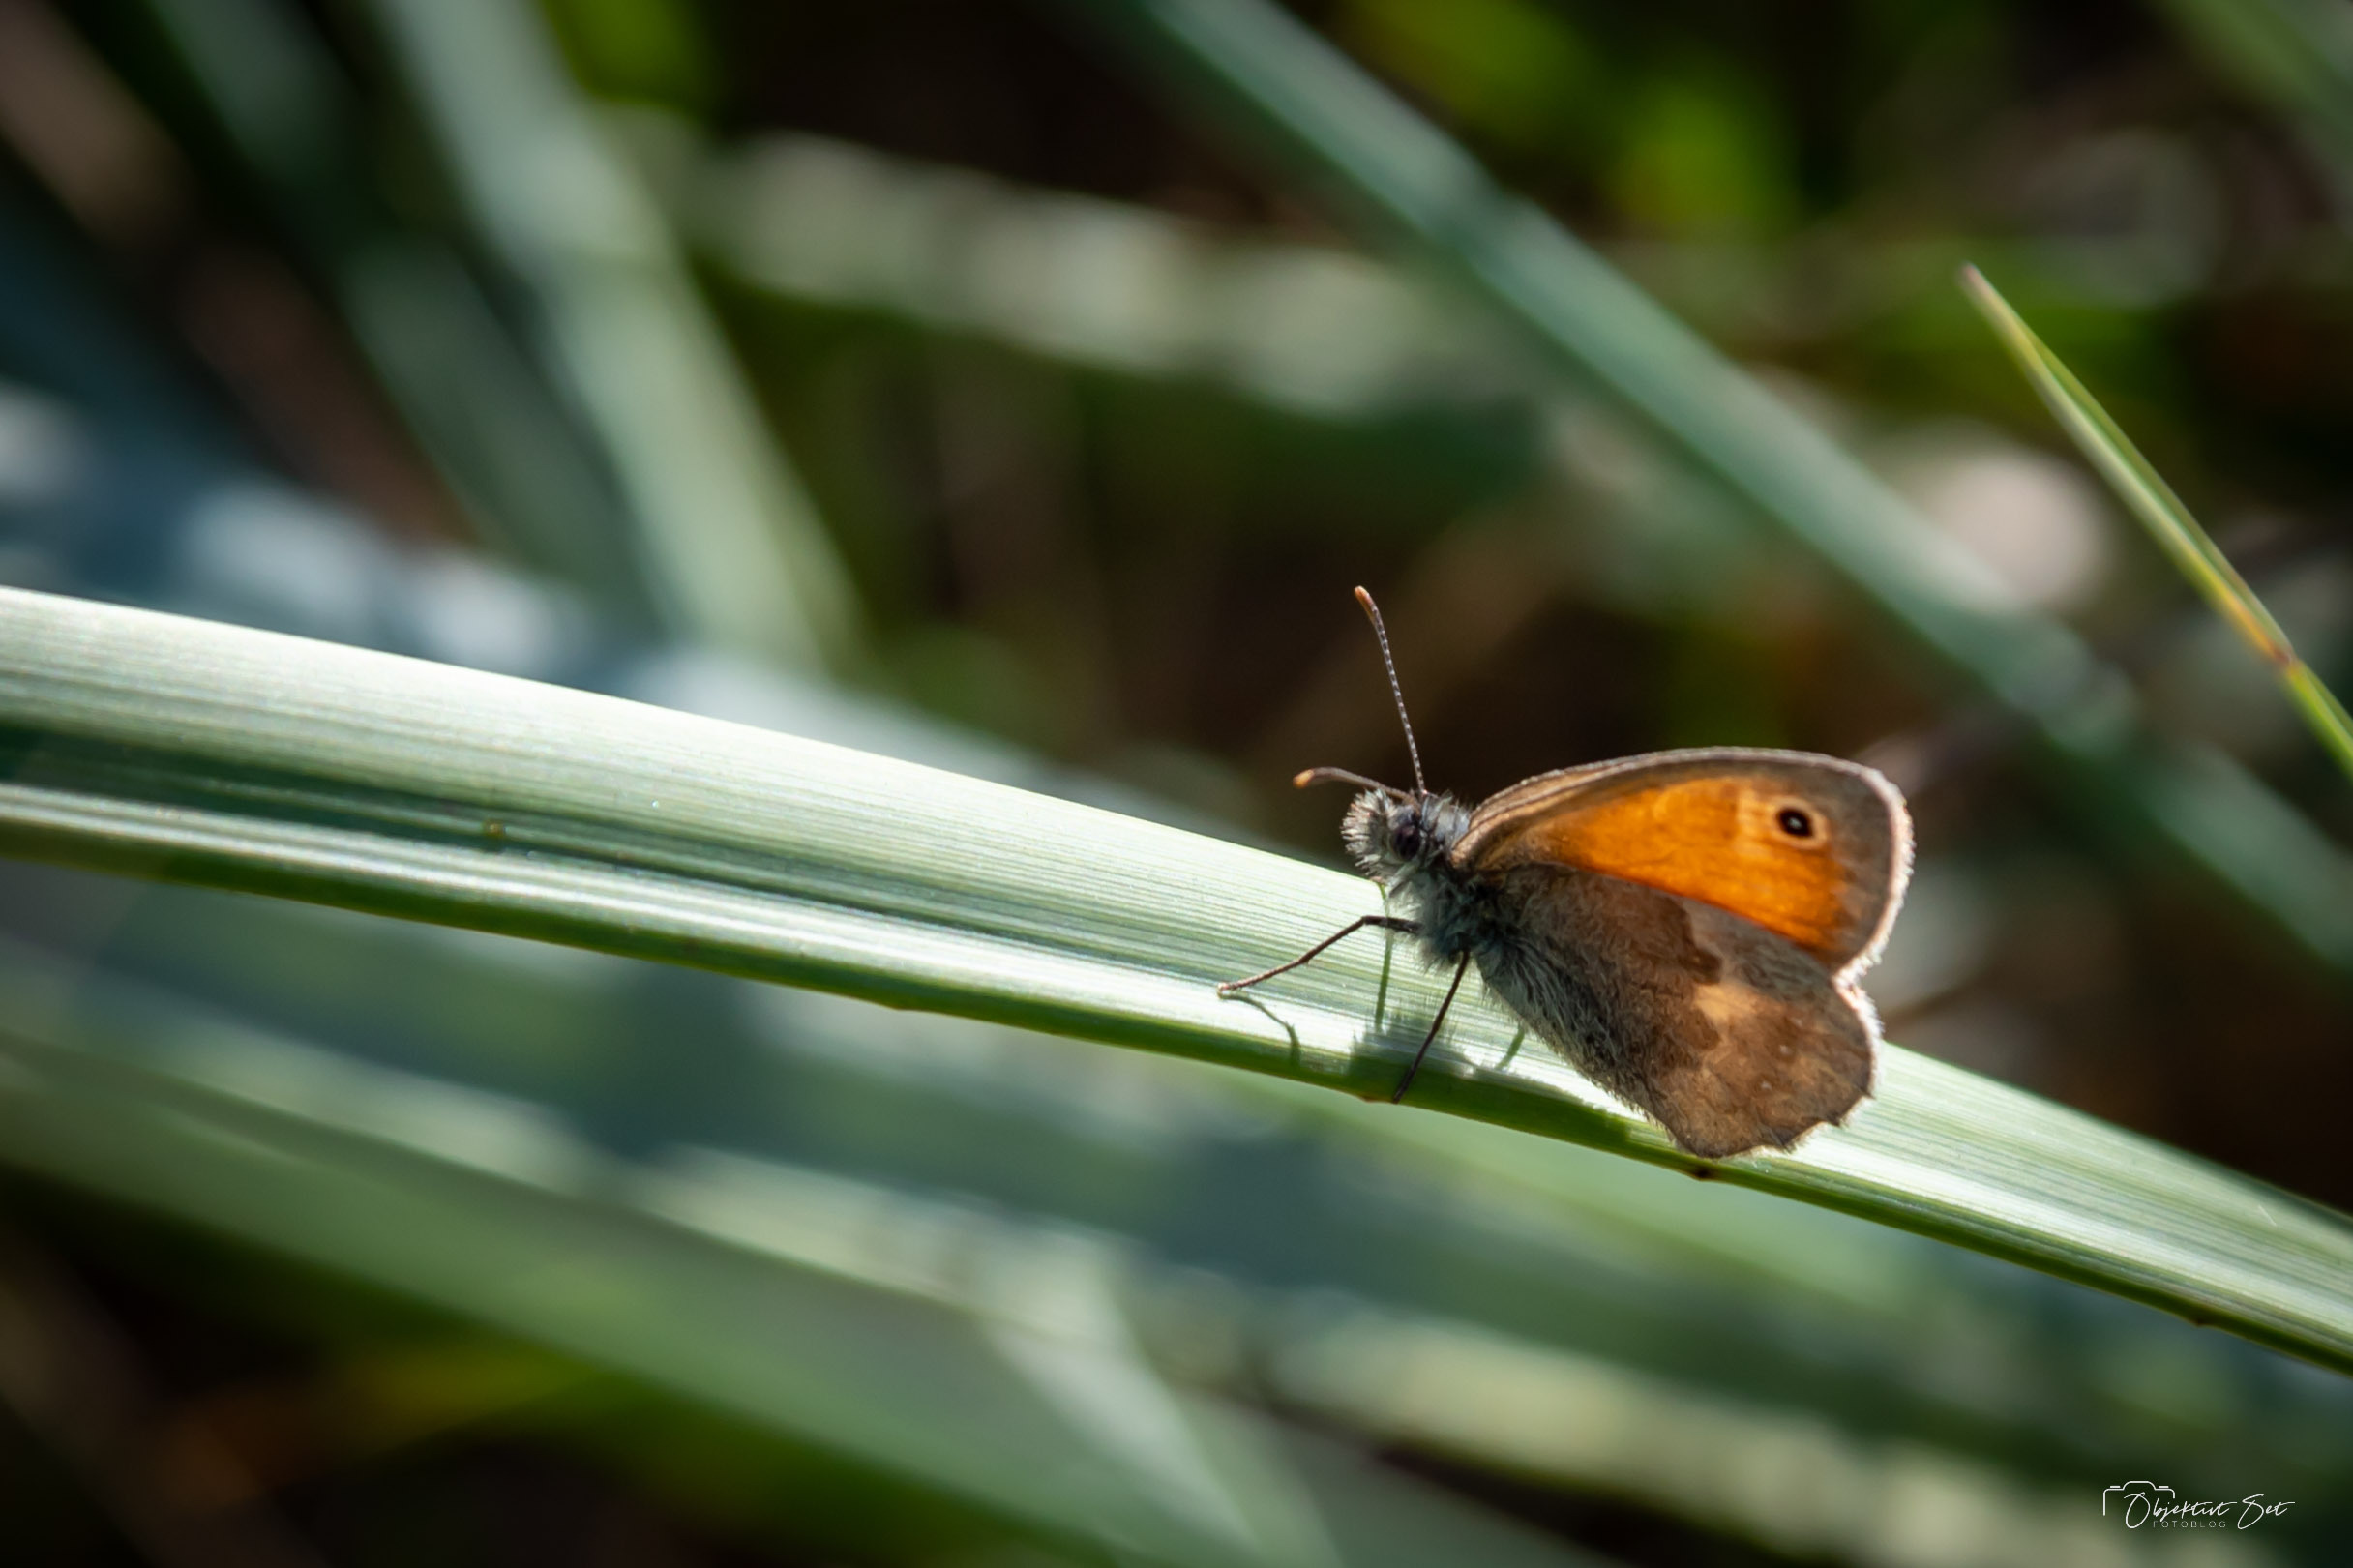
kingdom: Animalia
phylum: Arthropoda
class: Insecta
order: Lepidoptera
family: Nymphalidae
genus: Coenonympha
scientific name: Coenonympha pamphilus
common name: Okkergul randøje
